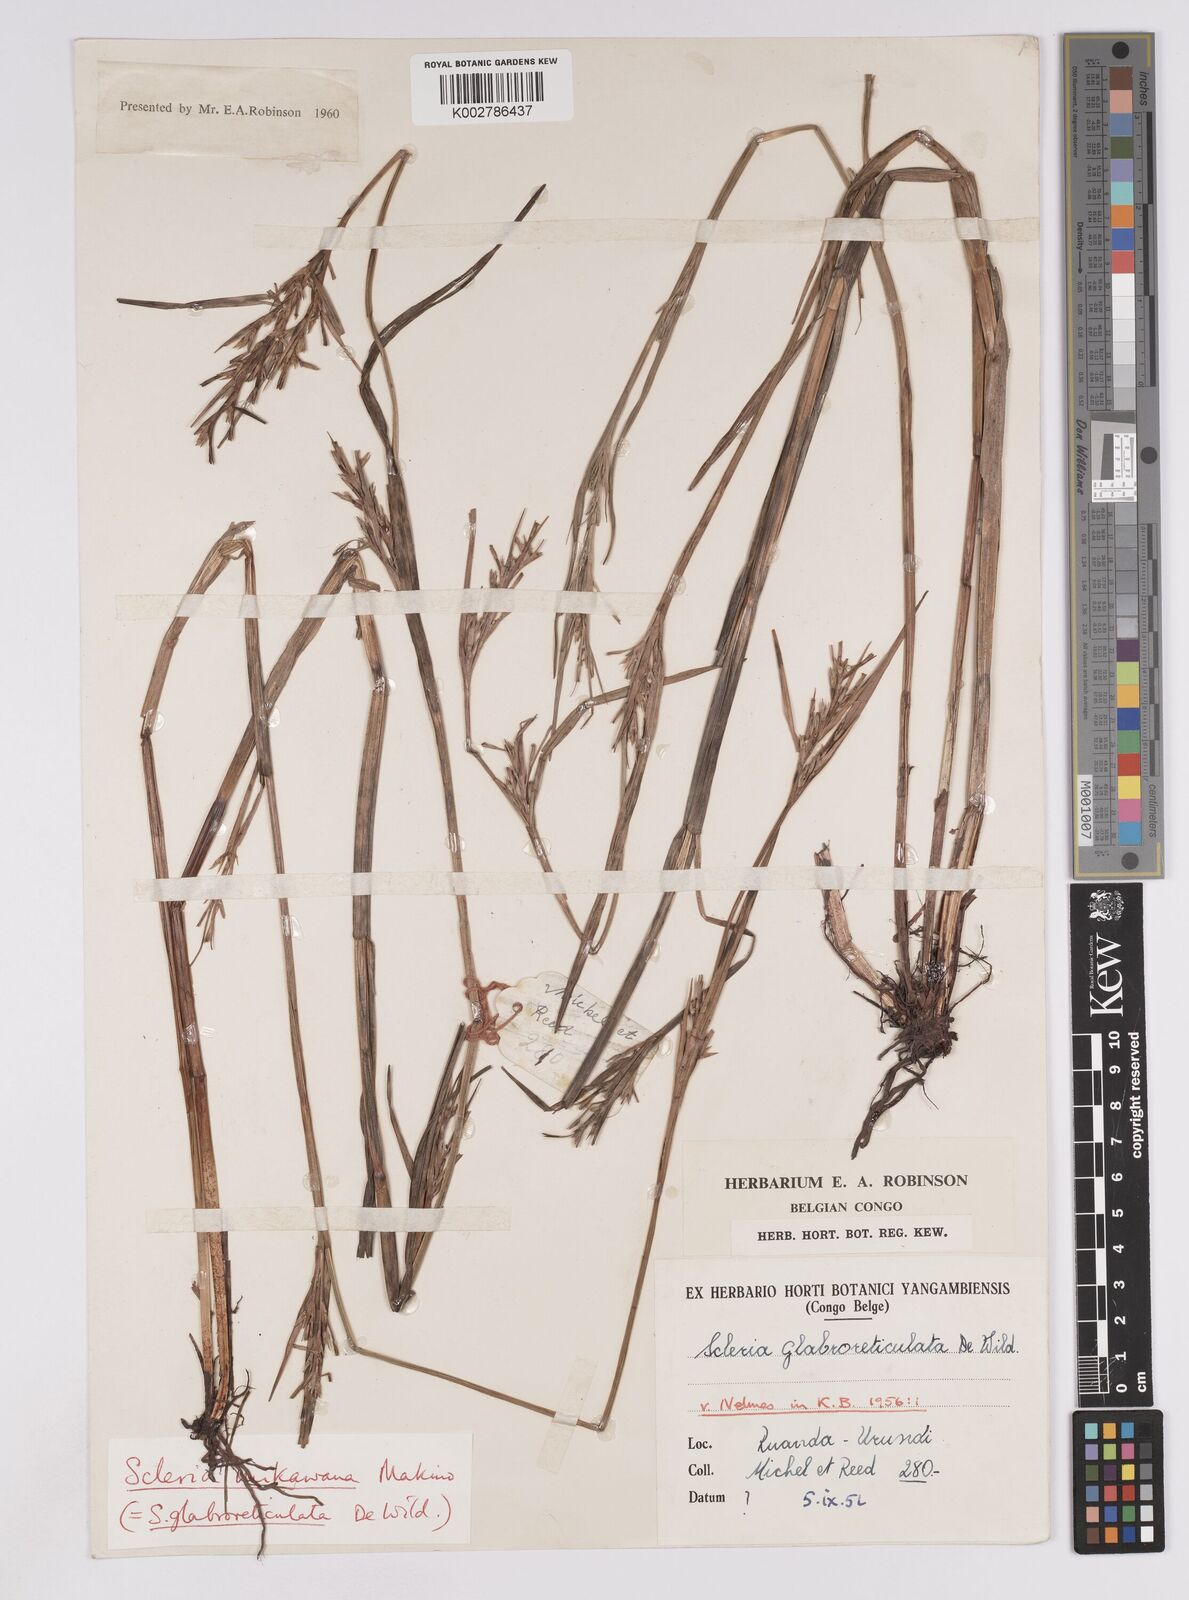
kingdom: Plantae
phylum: Tracheophyta
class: Liliopsida
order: Poales
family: Cyperaceae
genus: Scleria
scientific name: Scleria mikawana
